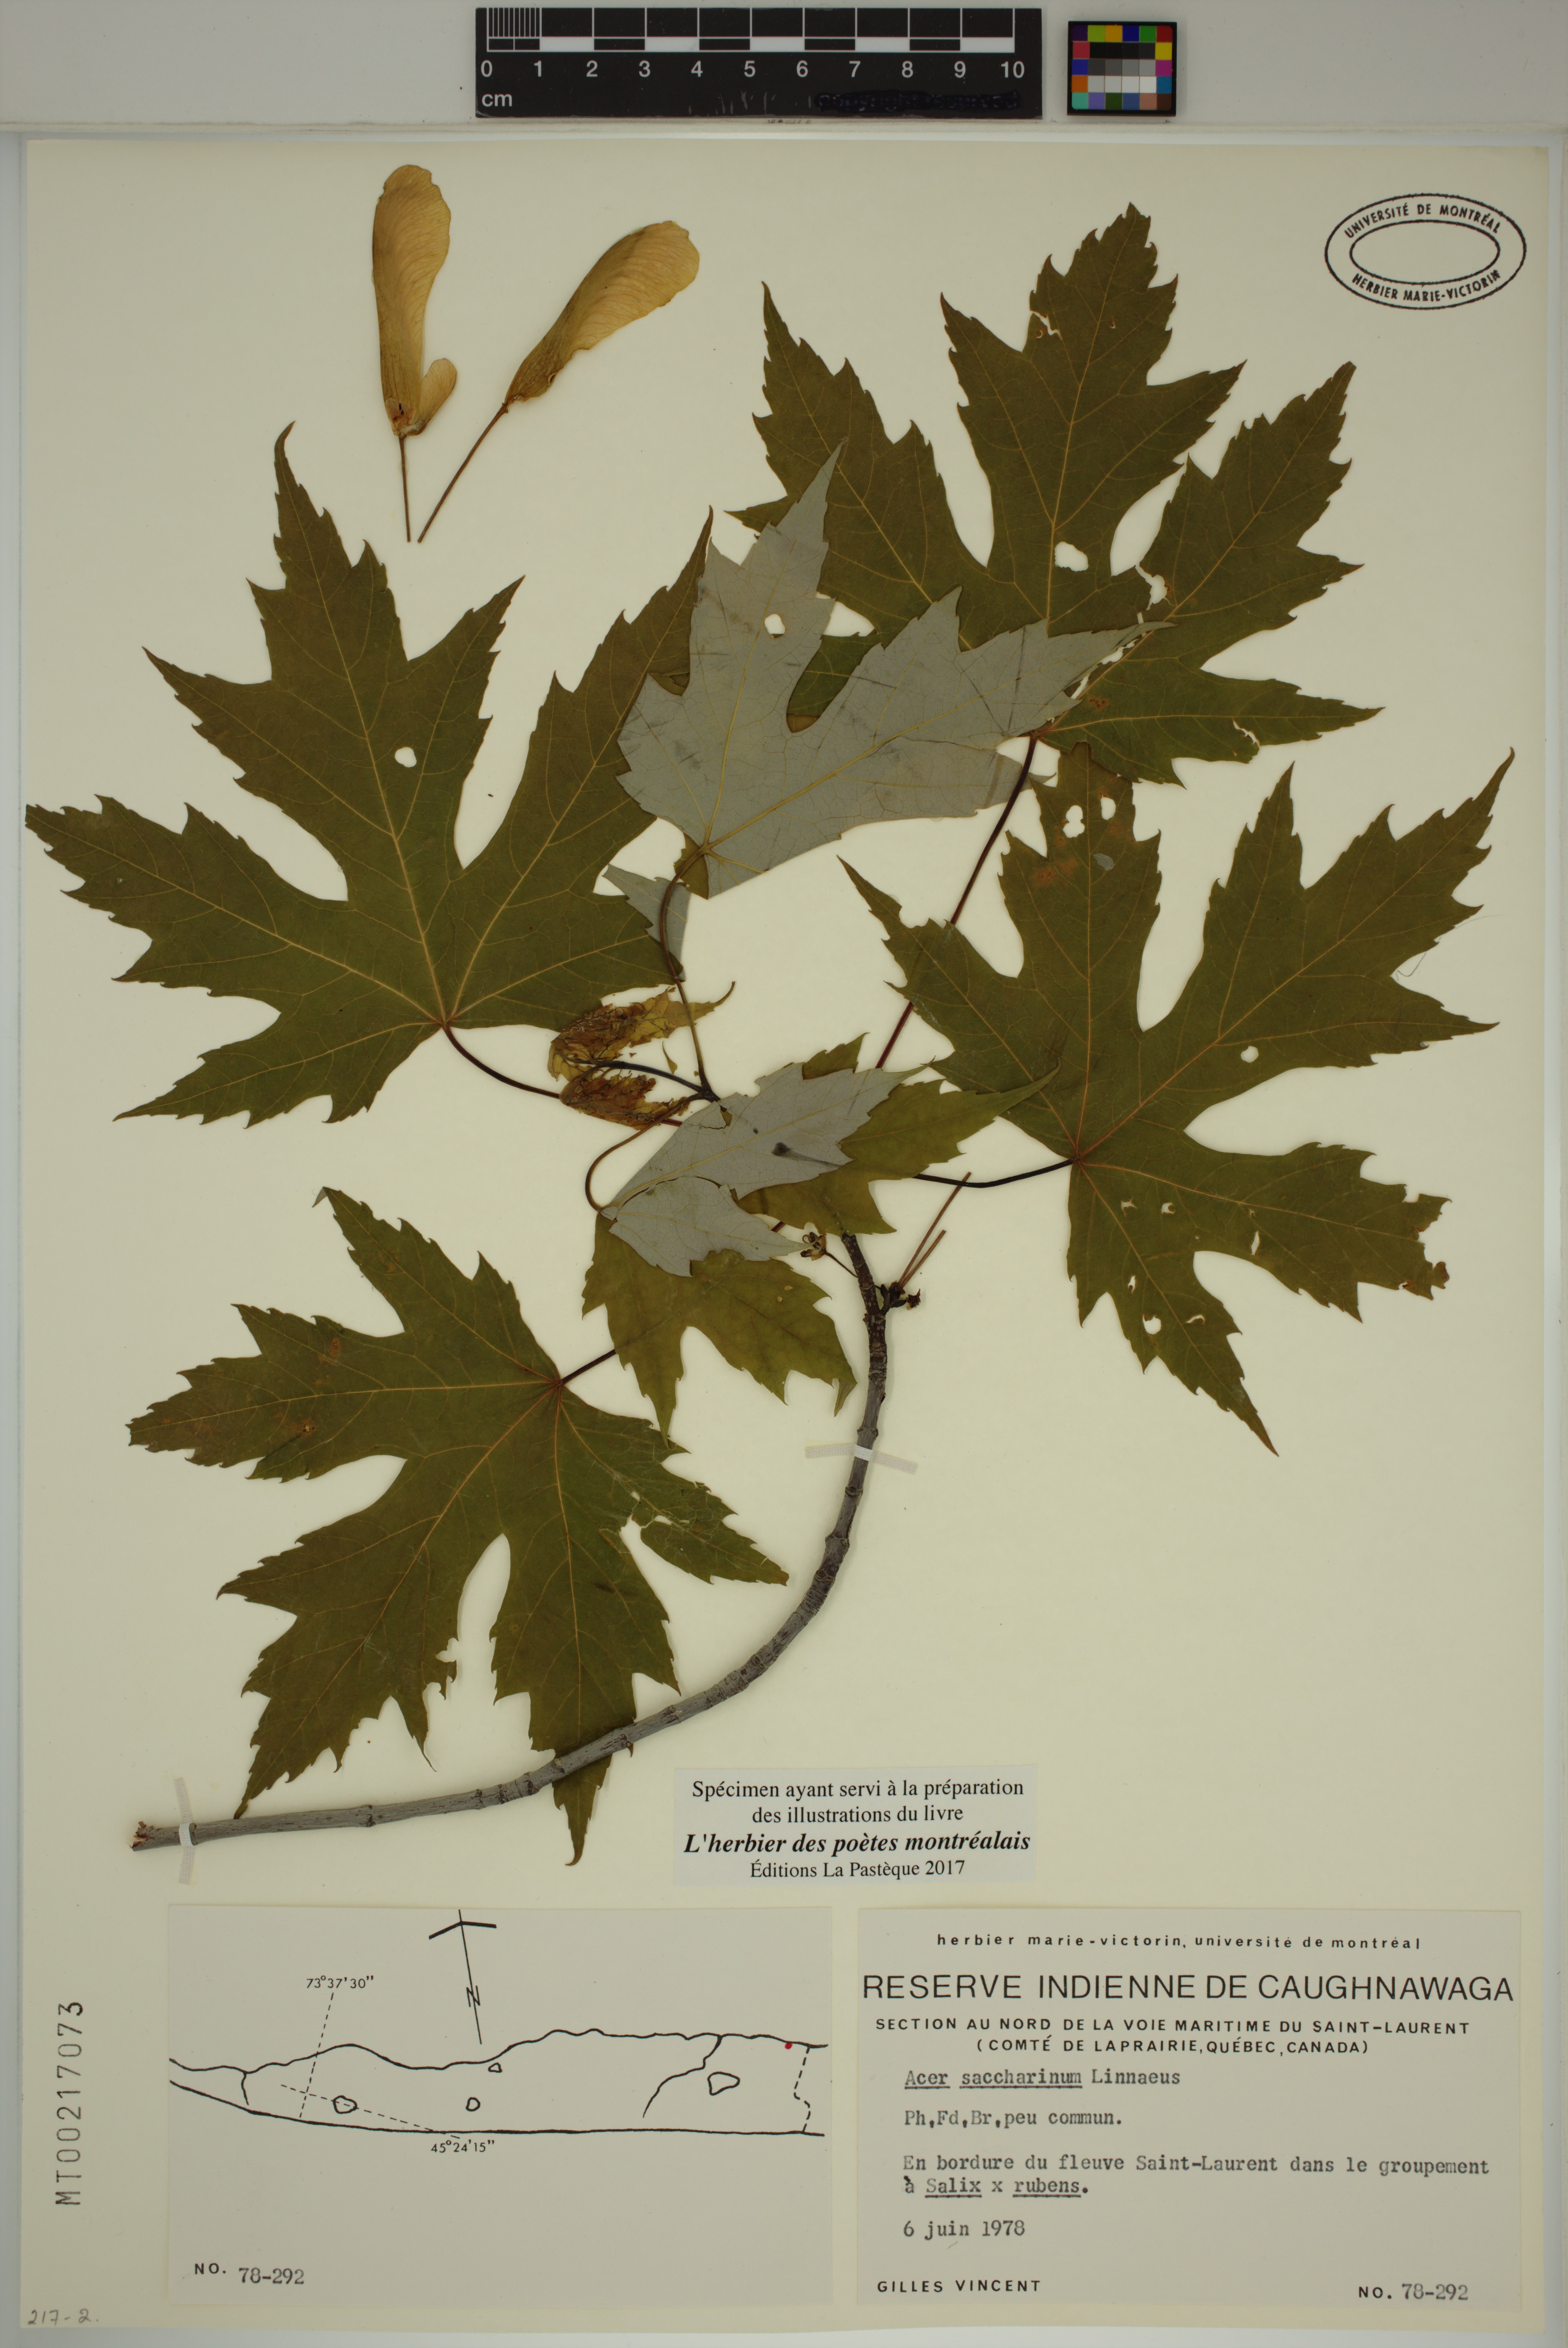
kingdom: Plantae
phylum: Tracheophyta
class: Magnoliopsida
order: Sapindales
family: Sapindaceae
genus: Acer
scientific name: Acer saccharinum
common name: Silver maple
